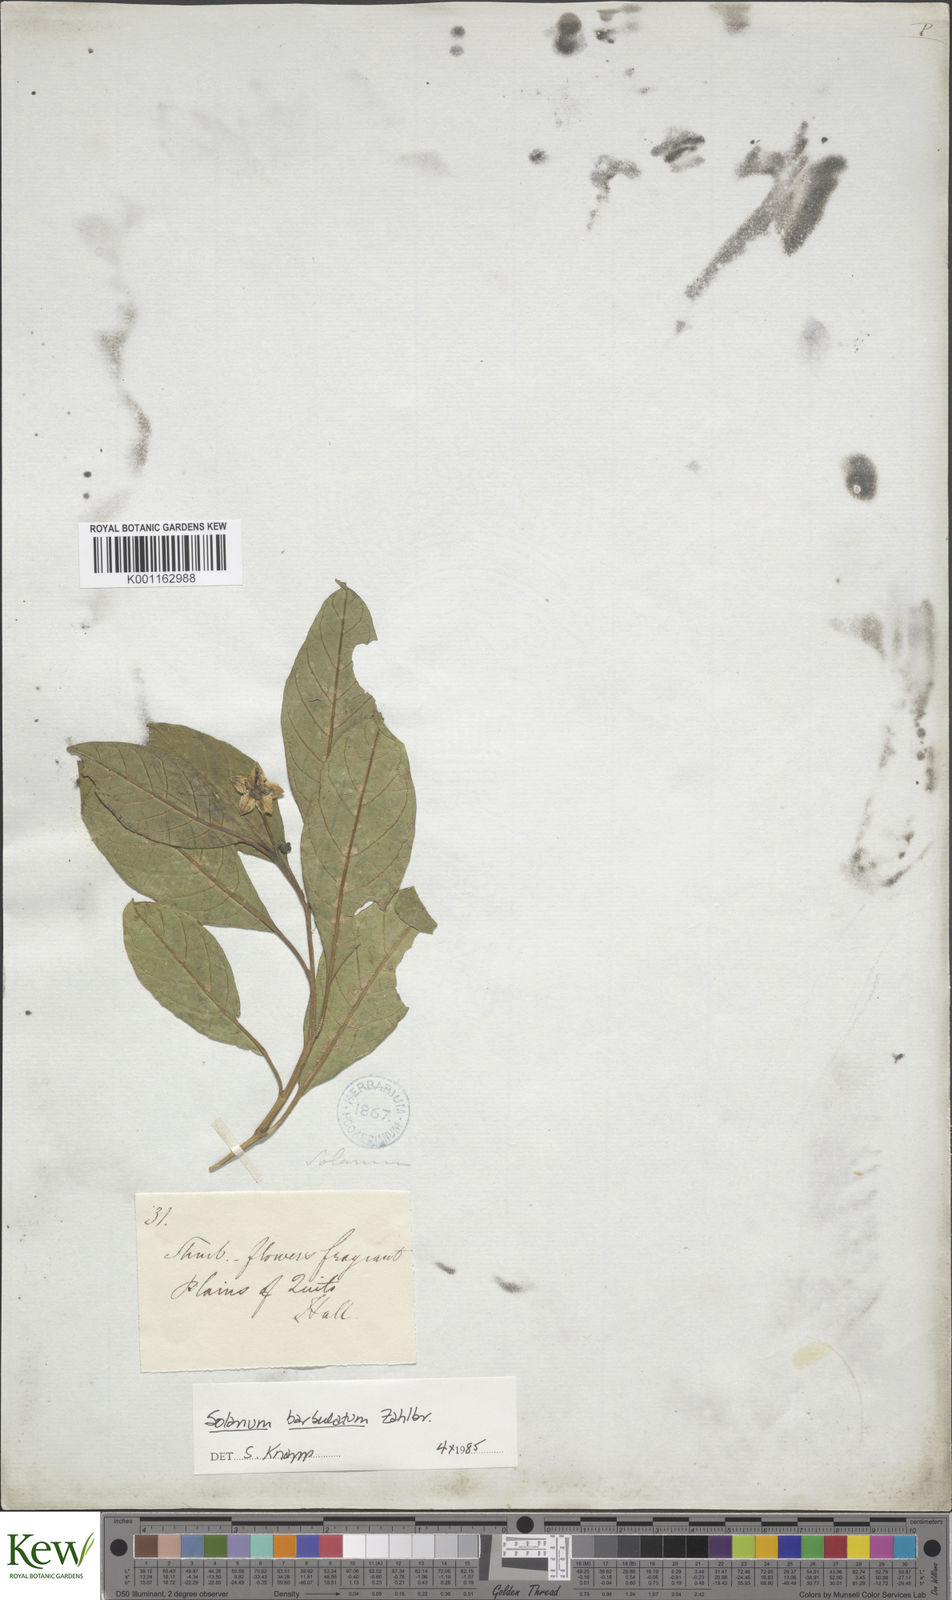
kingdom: Plantae
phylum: Tracheophyta
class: Magnoliopsida
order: Solanales
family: Solanaceae
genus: Solanum
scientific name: Solanum barbulatum
